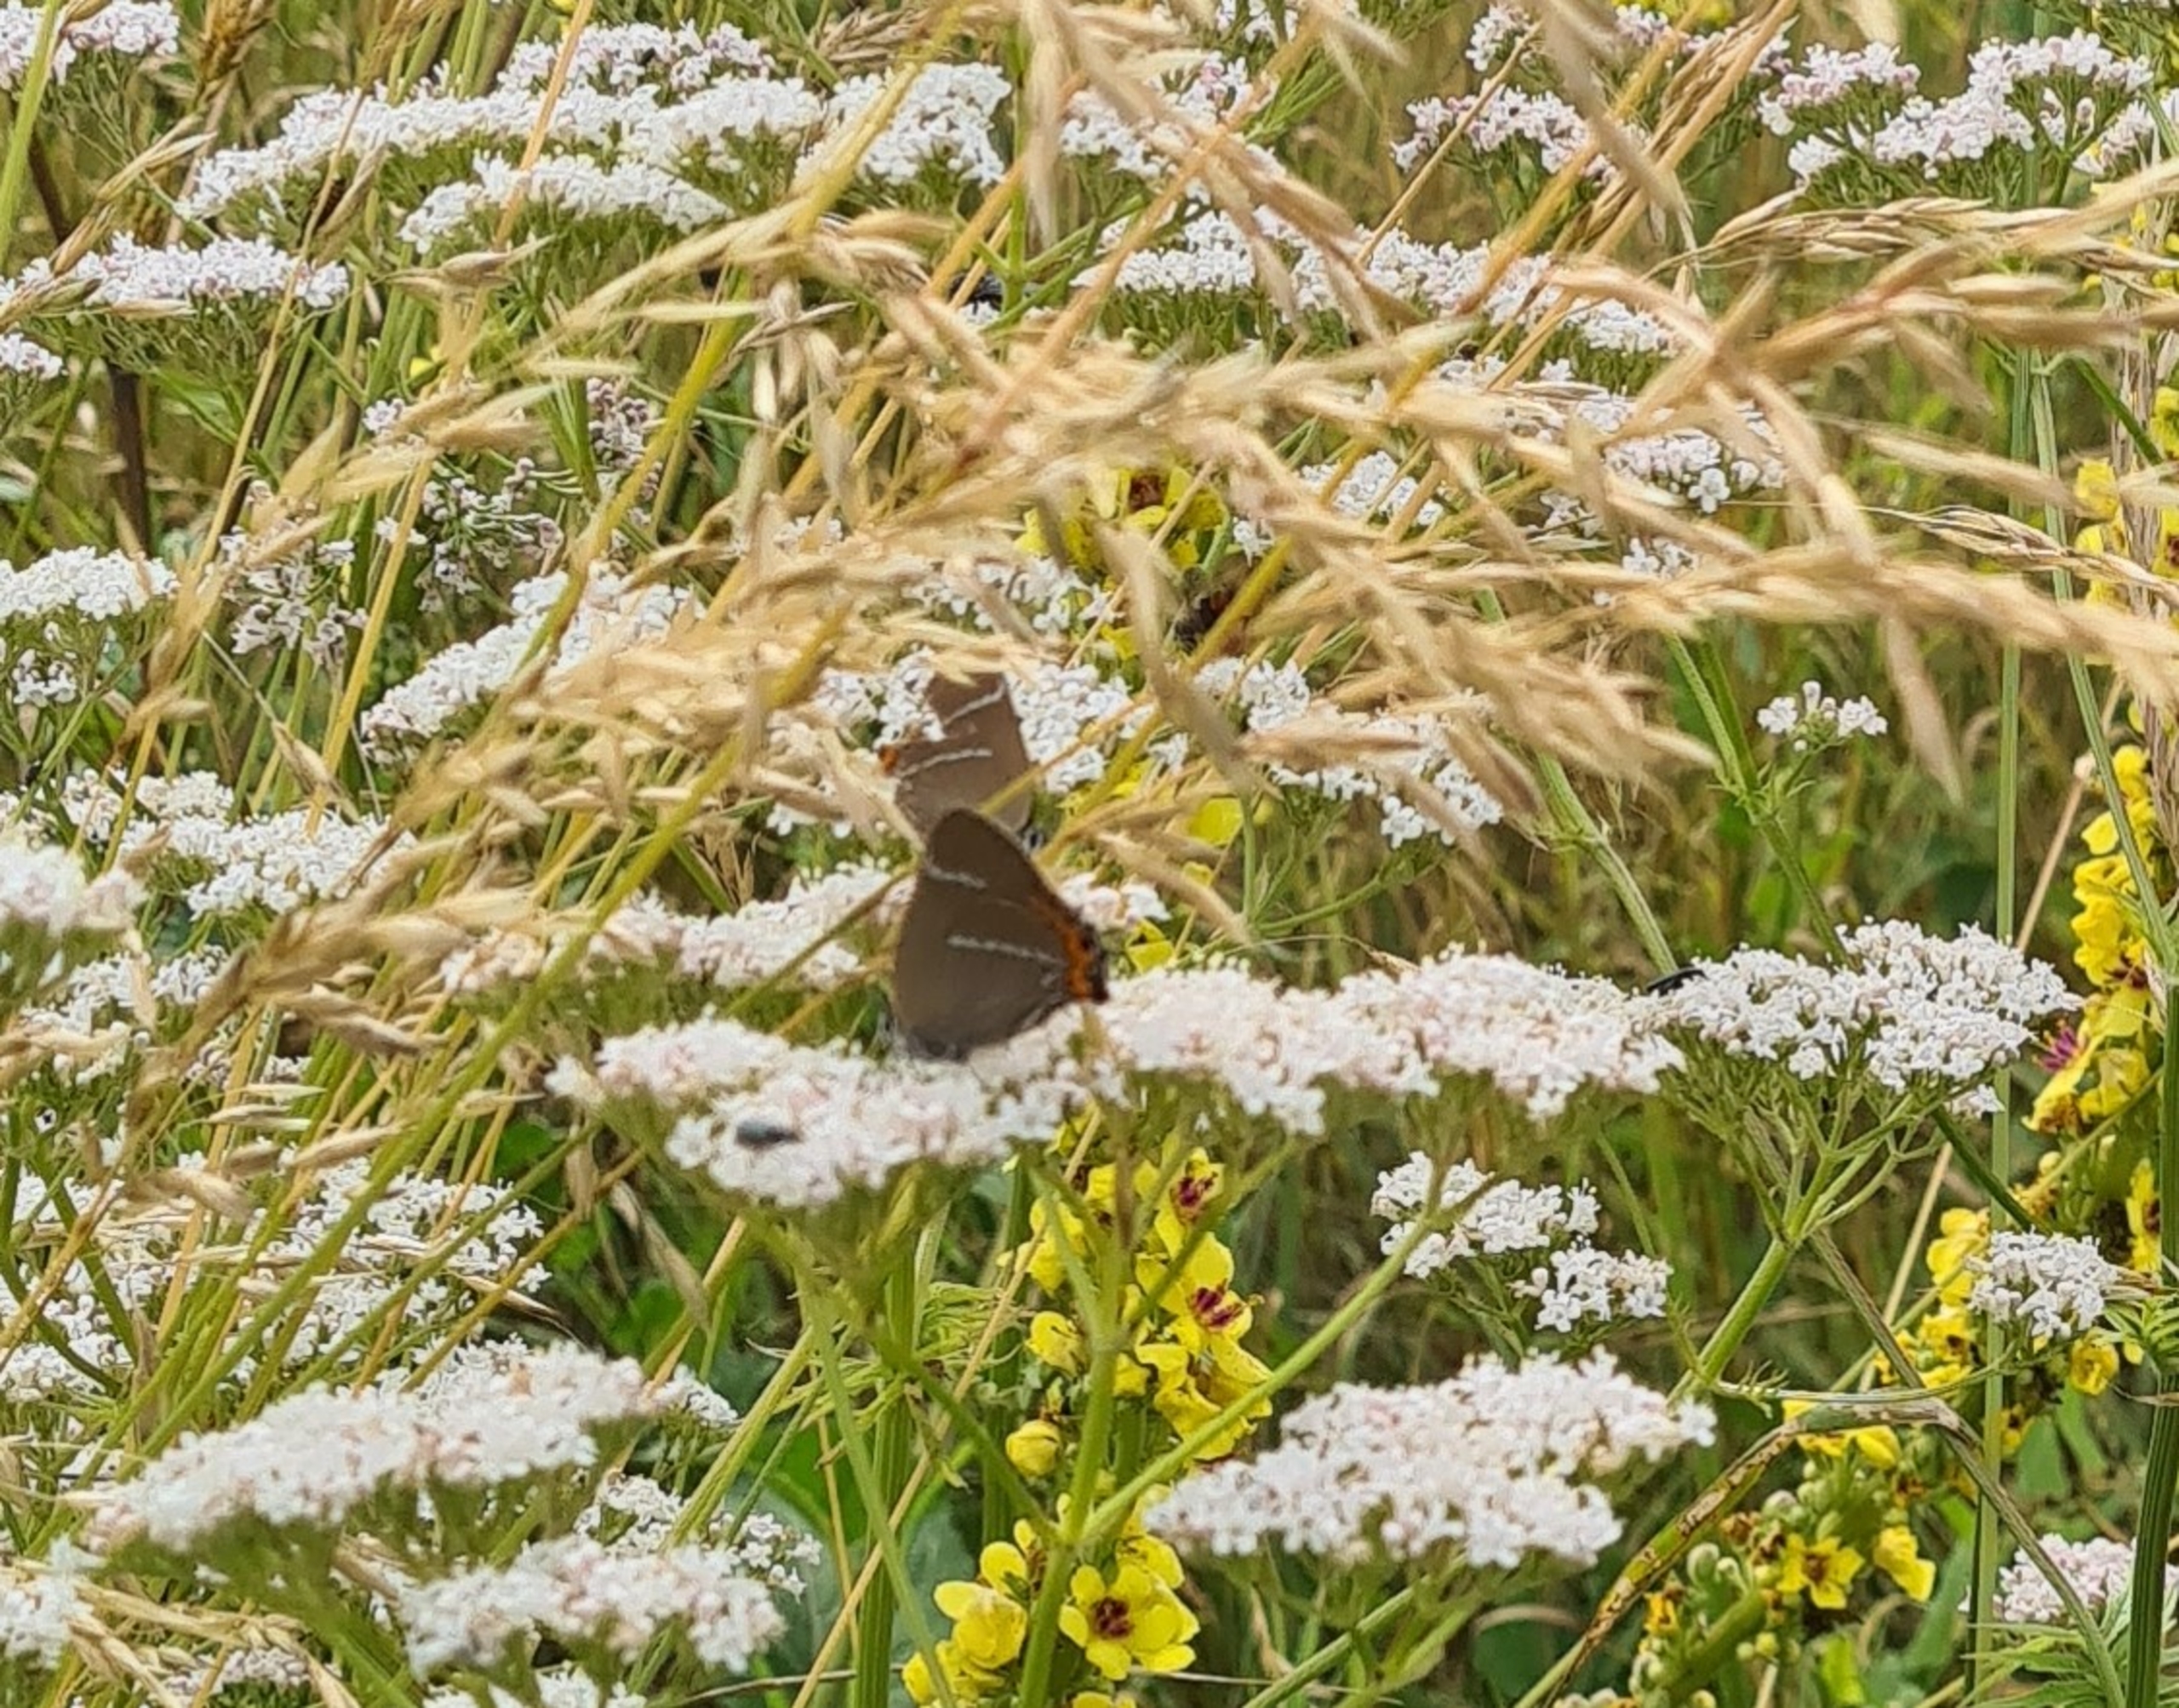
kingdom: Animalia
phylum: Arthropoda
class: Insecta
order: Lepidoptera
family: Lycaenidae
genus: Satyrium
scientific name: Satyrium w-album
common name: Det hvide W
